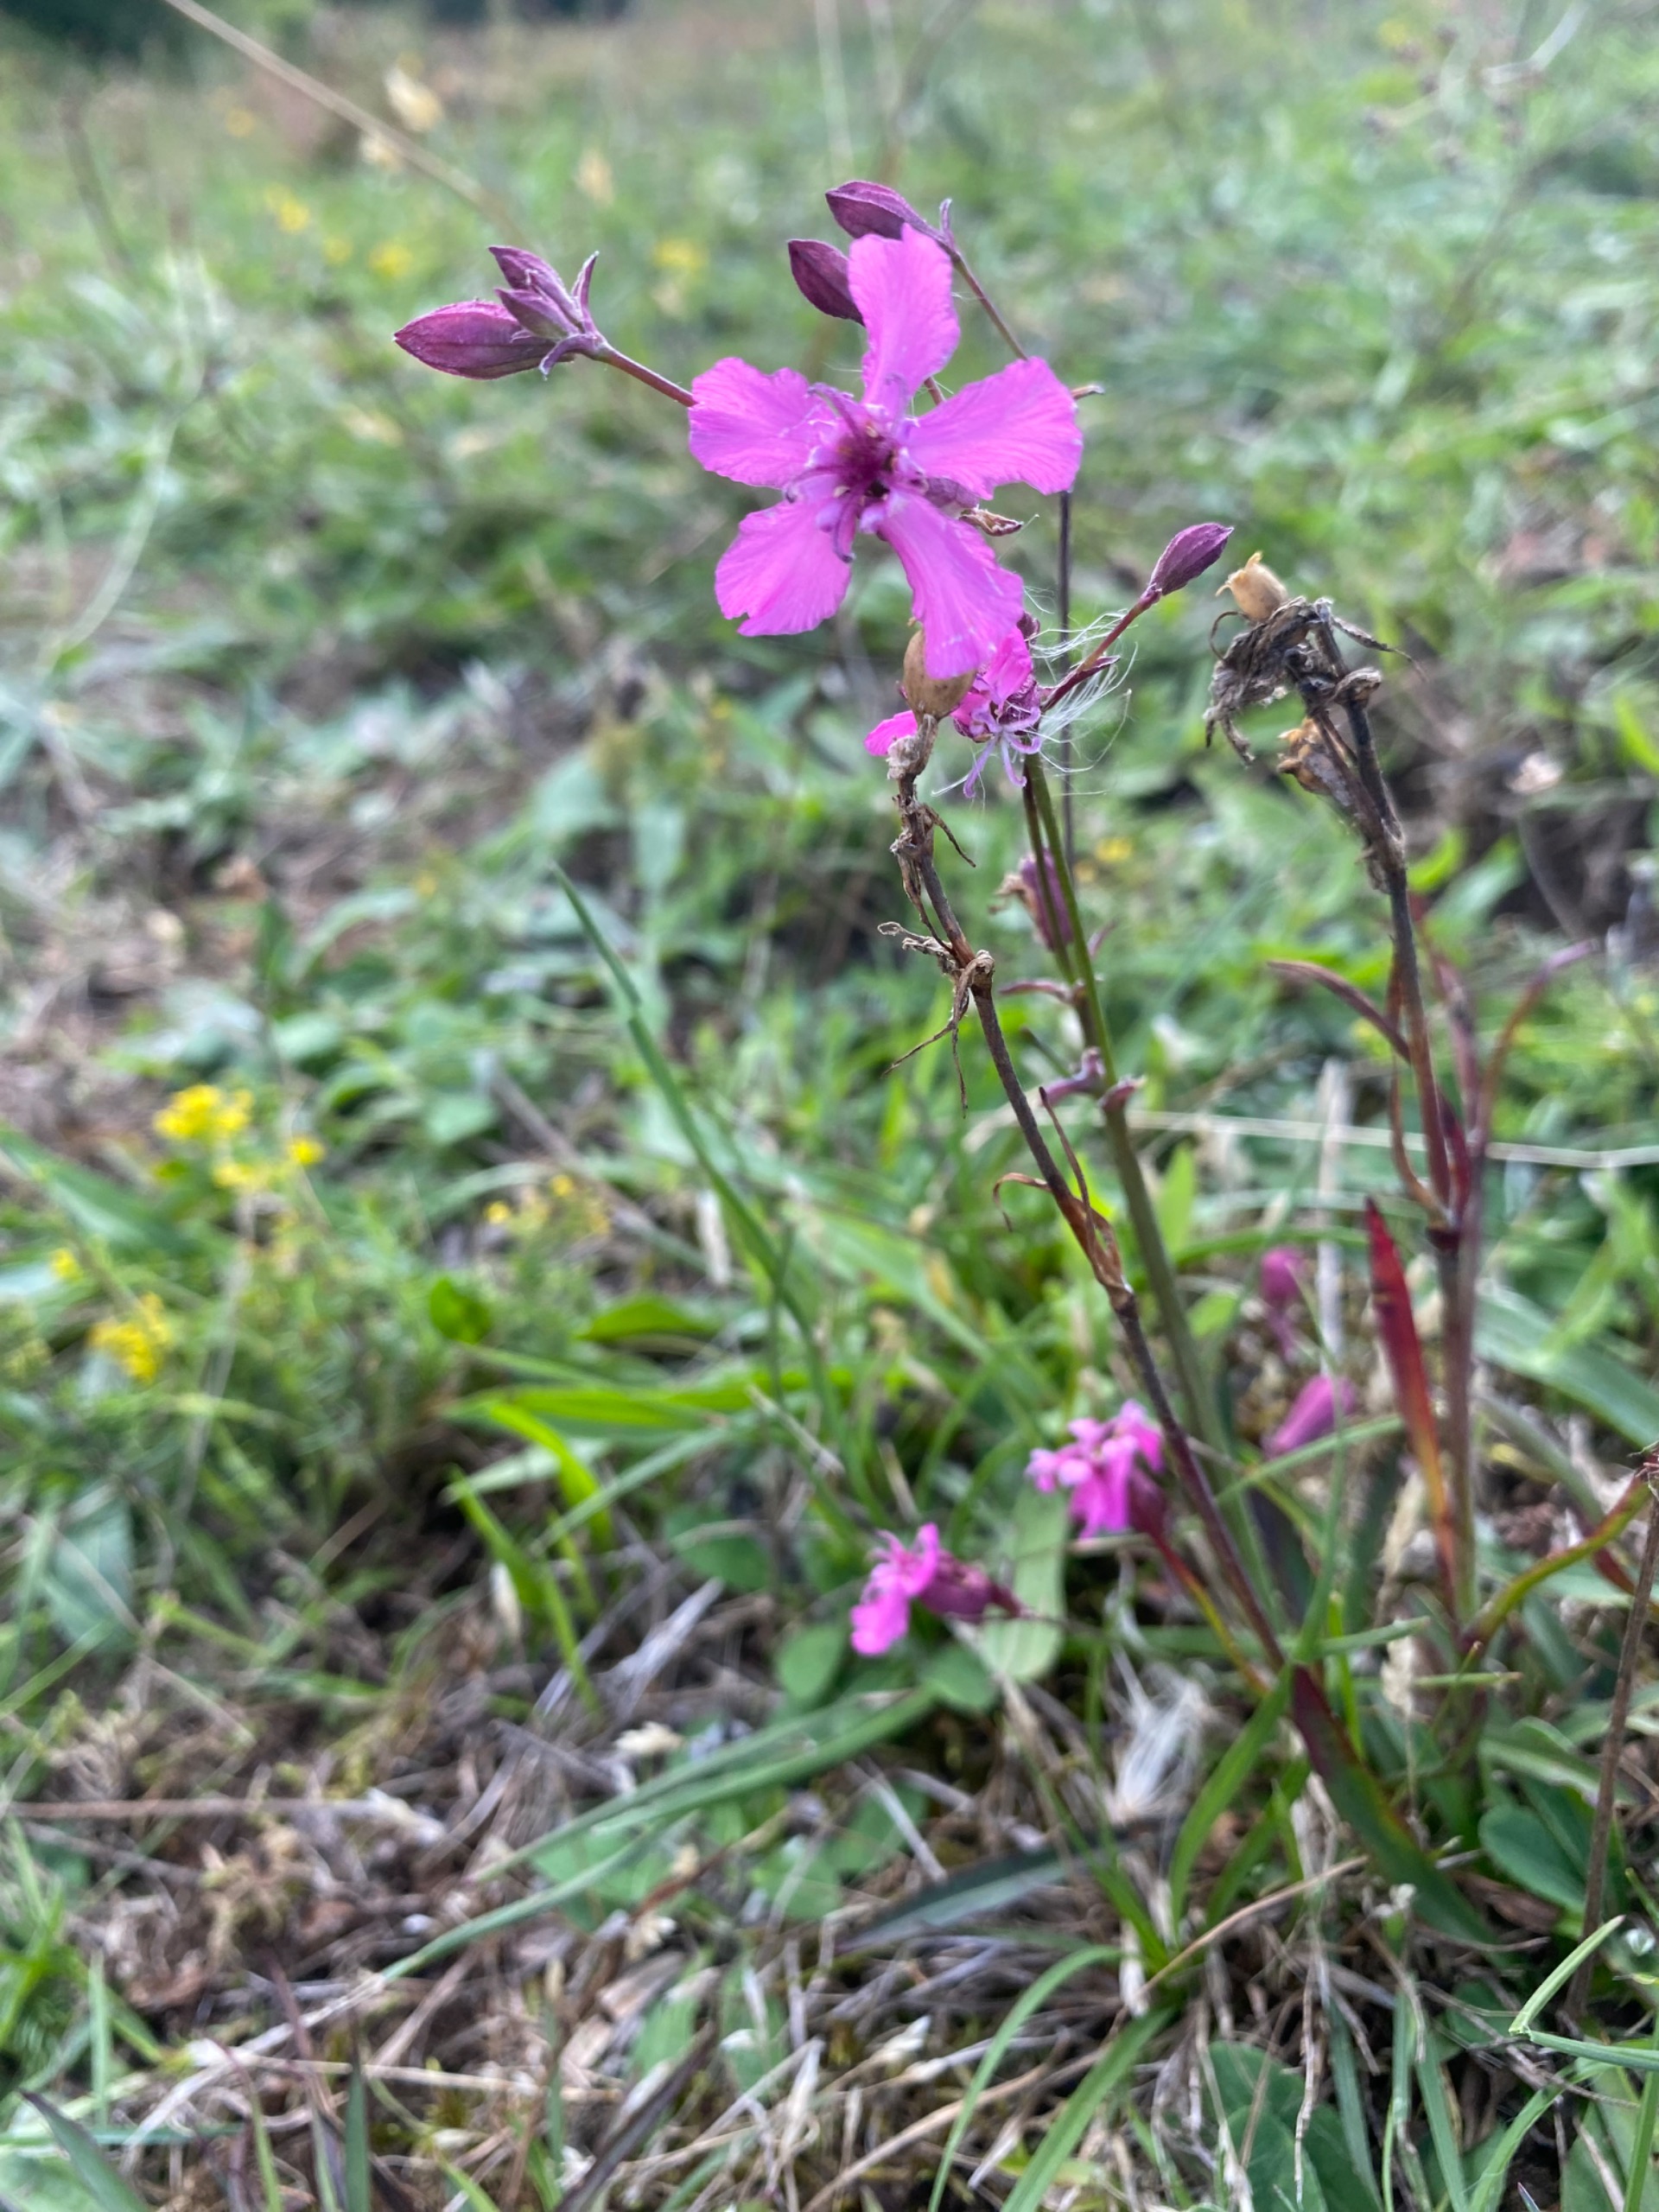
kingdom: Plantae
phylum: Tracheophyta
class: Magnoliopsida
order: Caryophyllales
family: Caryophyllaceae
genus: Viscaria
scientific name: Viscaria vulgaris
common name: Tjærenellike
